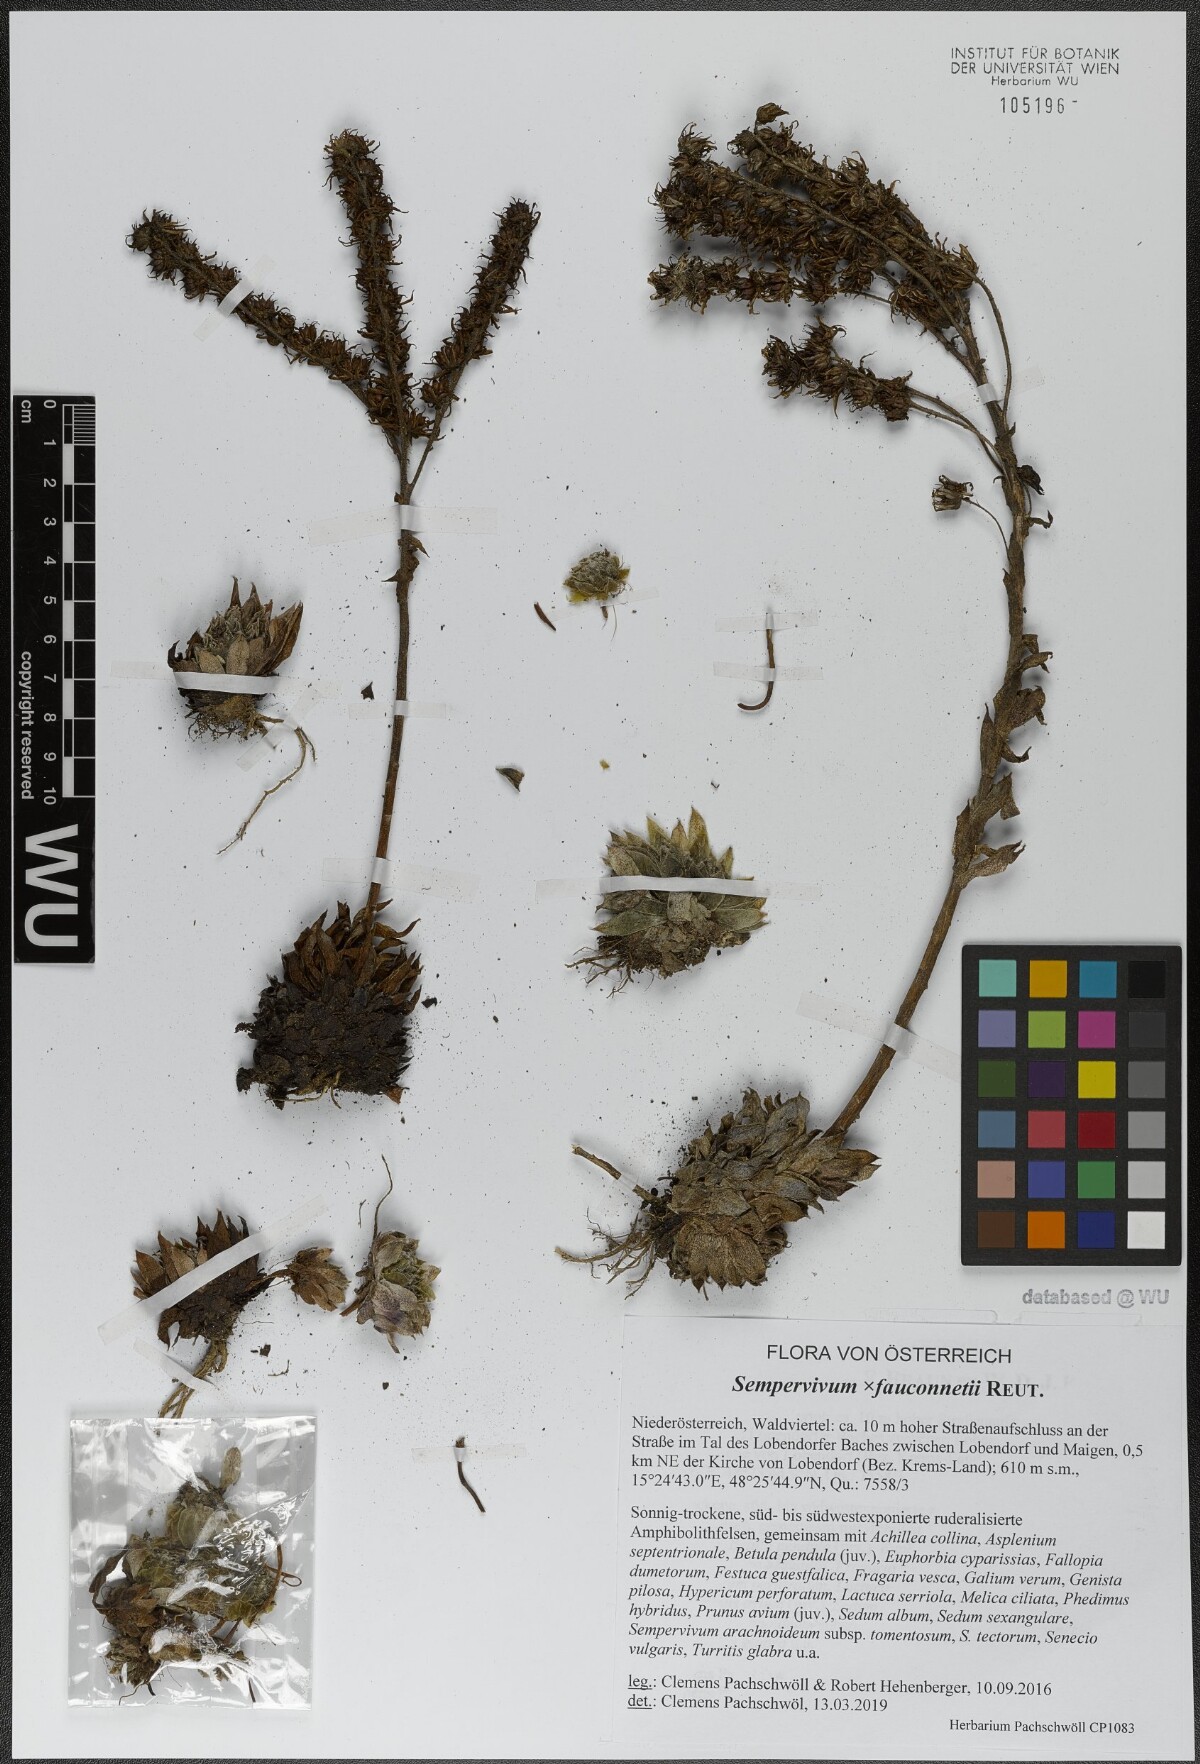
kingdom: Plantae
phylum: Tracheophyta
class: Magnoliopsida
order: Saxifragales
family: Crassulaceae
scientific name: Crassulaceae
